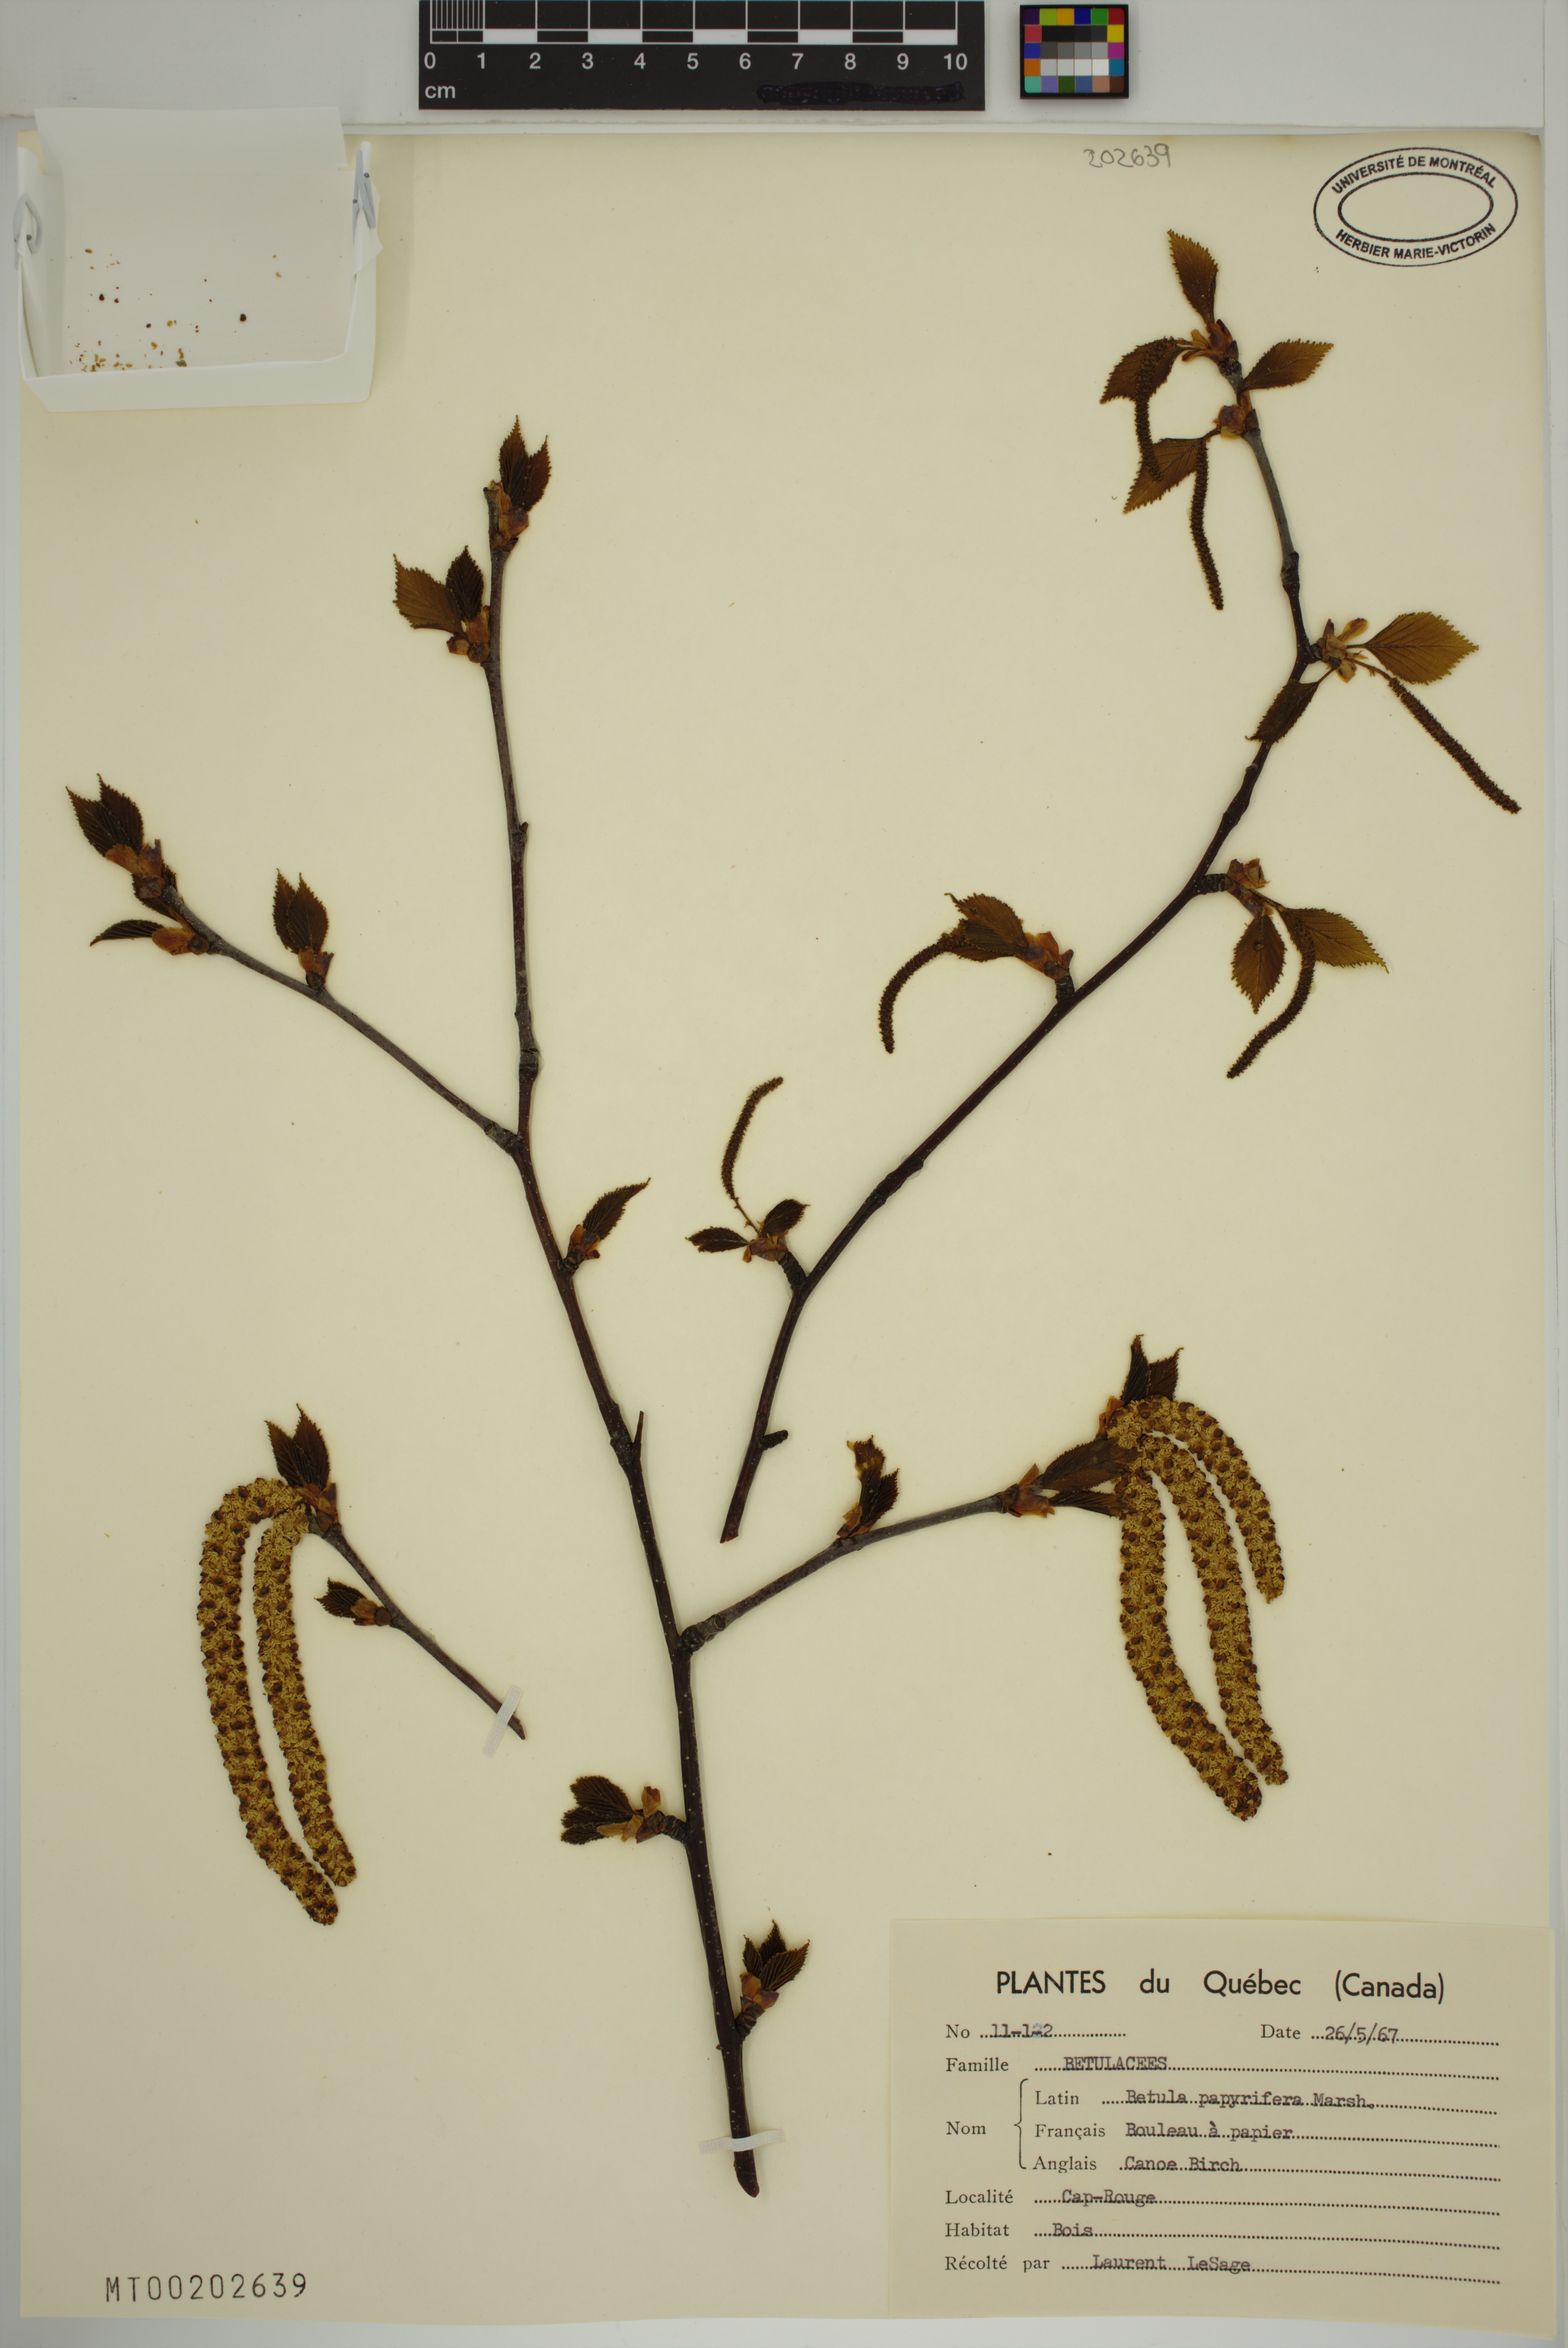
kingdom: Plantae
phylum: Tracheophyta
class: Magnoliopsida
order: Fagales
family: Betulaceae
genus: Betula
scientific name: Betula papyrifera
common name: Paper birch
